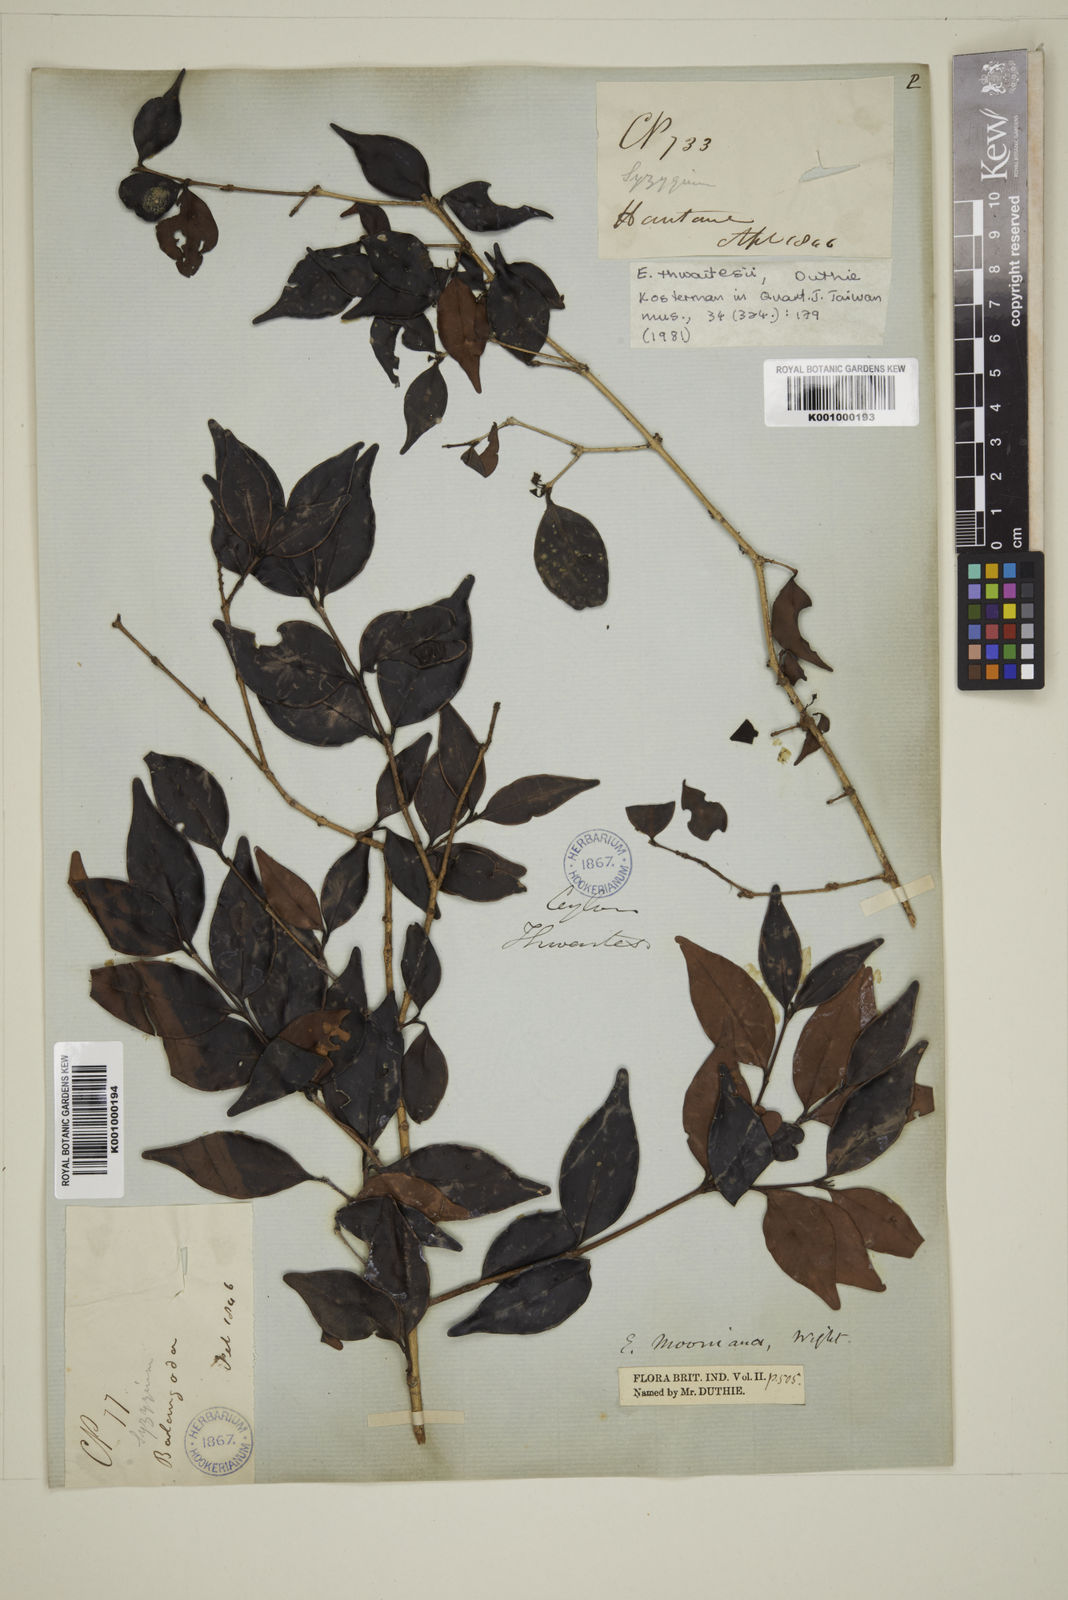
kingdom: Plantae
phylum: Tracheophyta
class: Magnoliopsida
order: Myrtales
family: Myrtaceae
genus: Eugenia
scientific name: Eugenia thwaitesii
